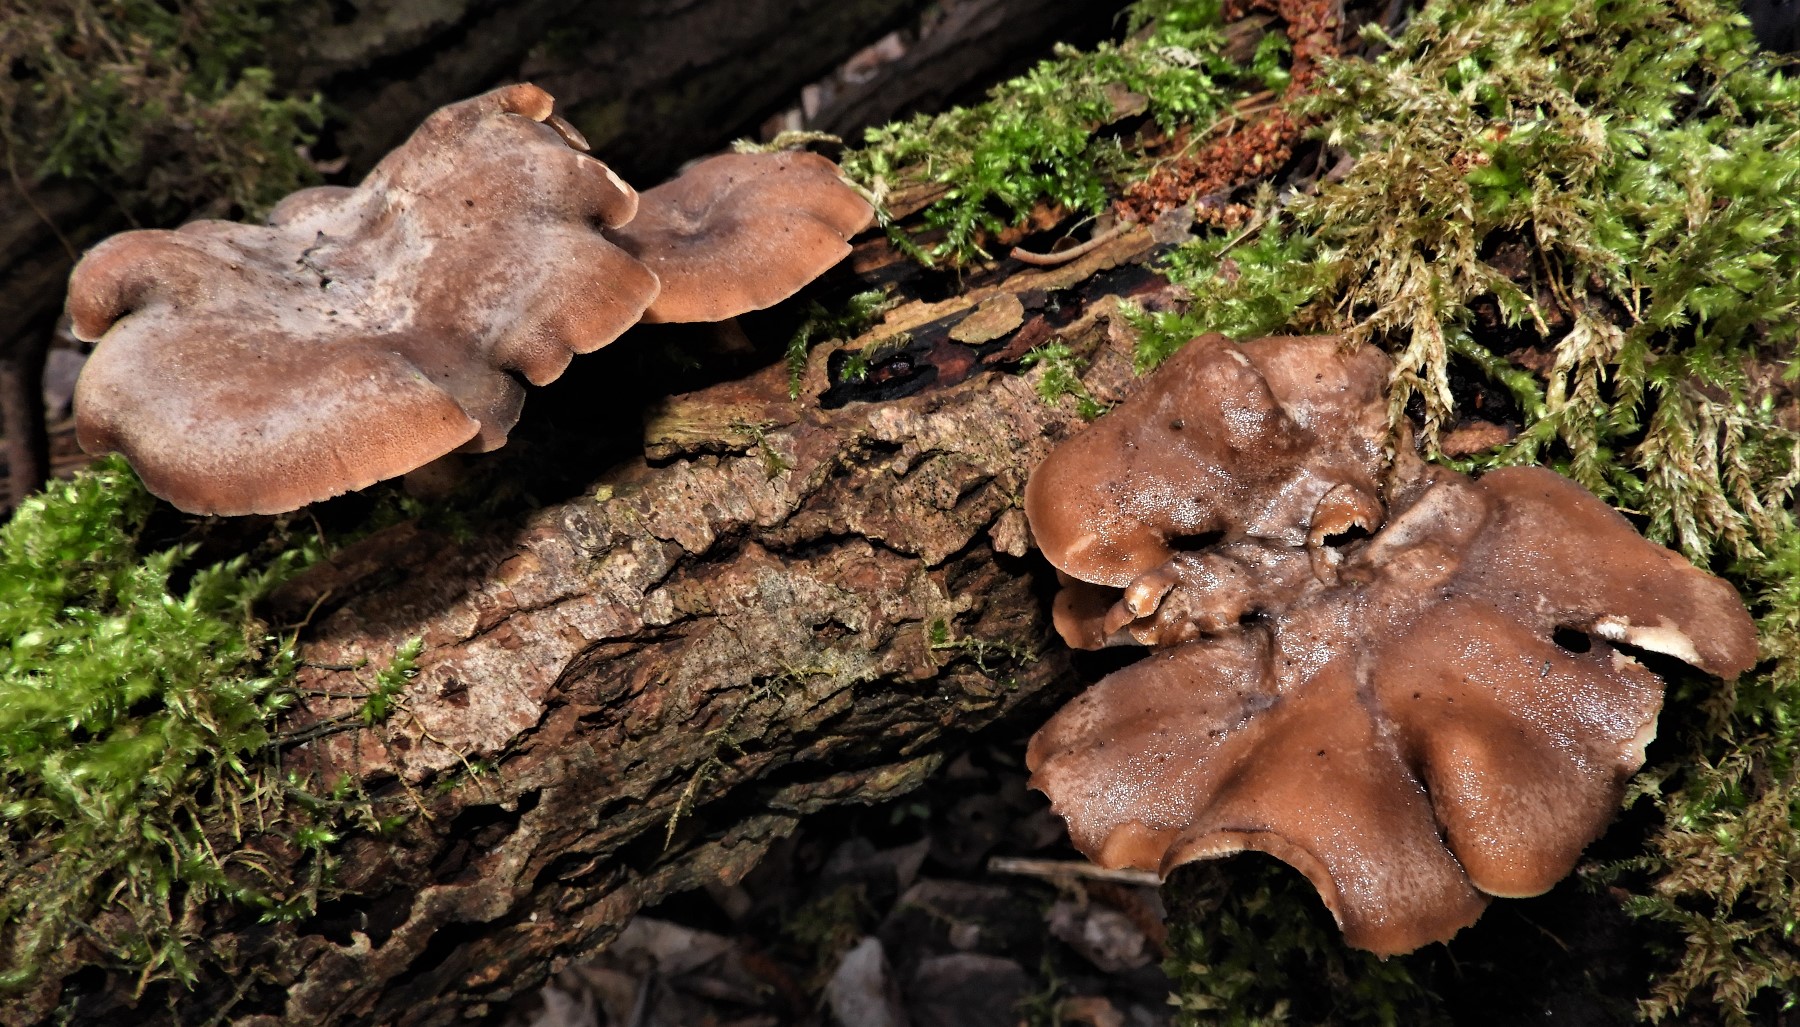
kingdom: Fungi
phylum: Basidiomycota
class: Agaricomycetes
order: Polyporales
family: Polyporaceae
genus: Lentinus
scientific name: Lentinus brumalis
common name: vinter-stilkporesvamp
